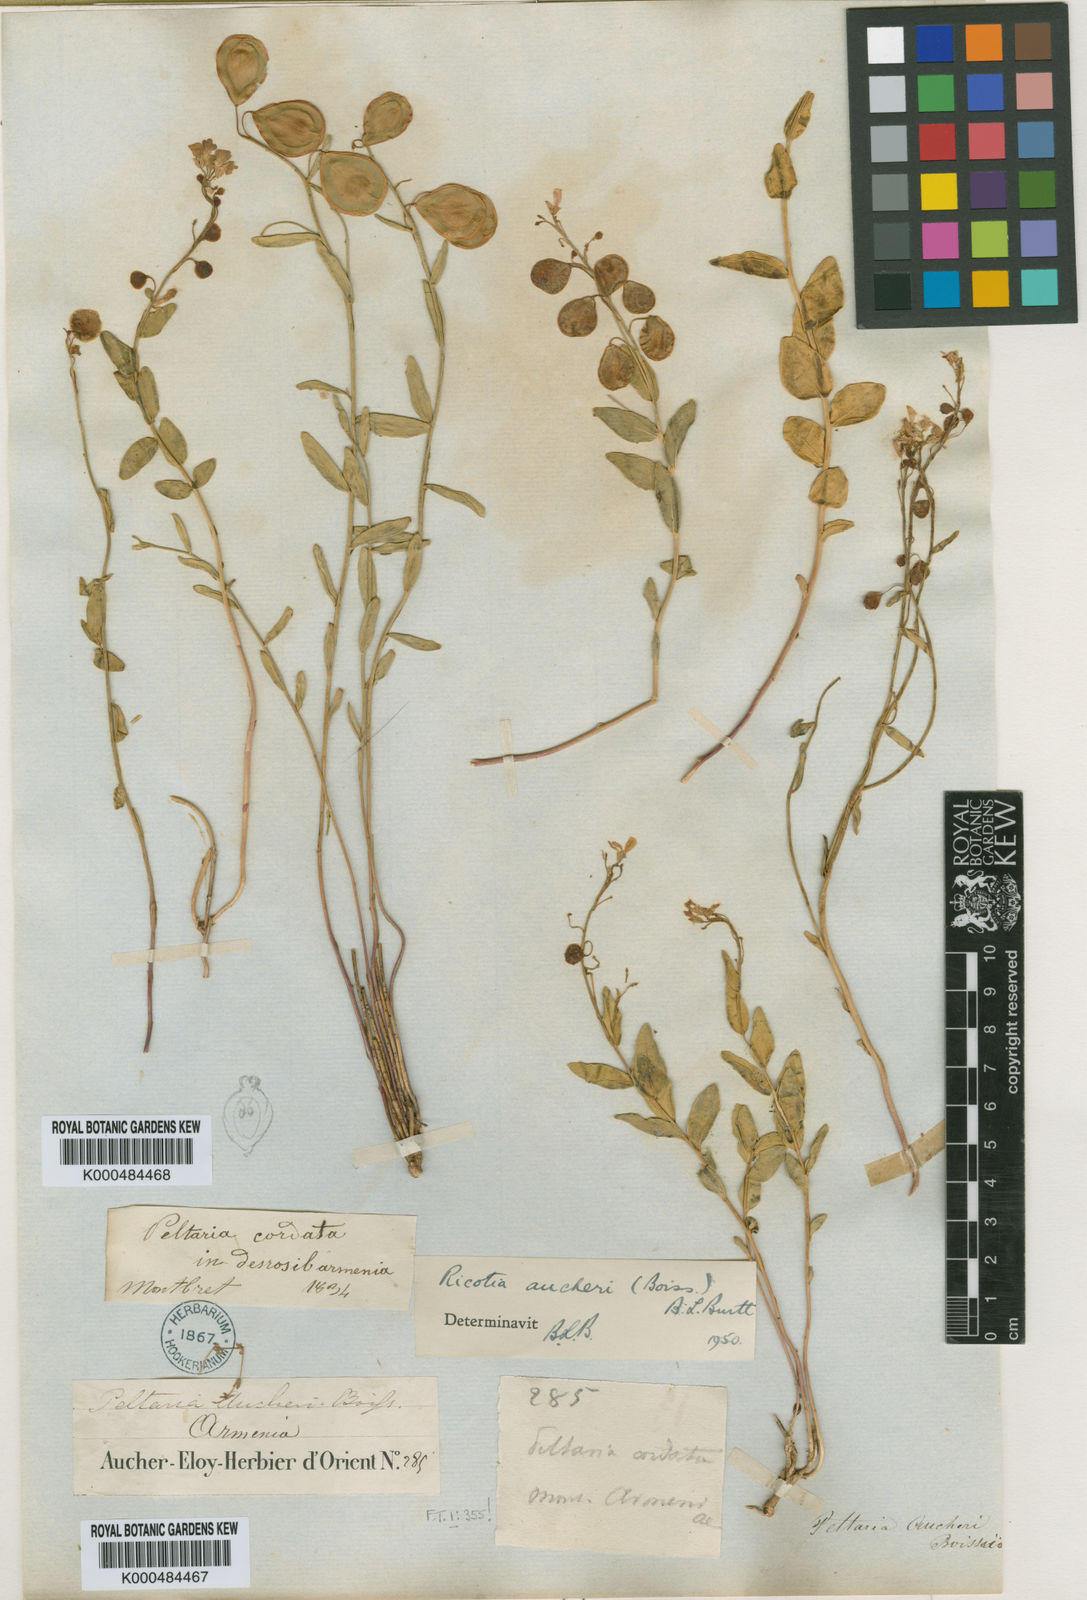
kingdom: Plantae
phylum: Tracheophyta
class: Magnoliopsida
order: Brassicales
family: Brassicaceae
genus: Ricotia
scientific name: Ricotia aucheri
